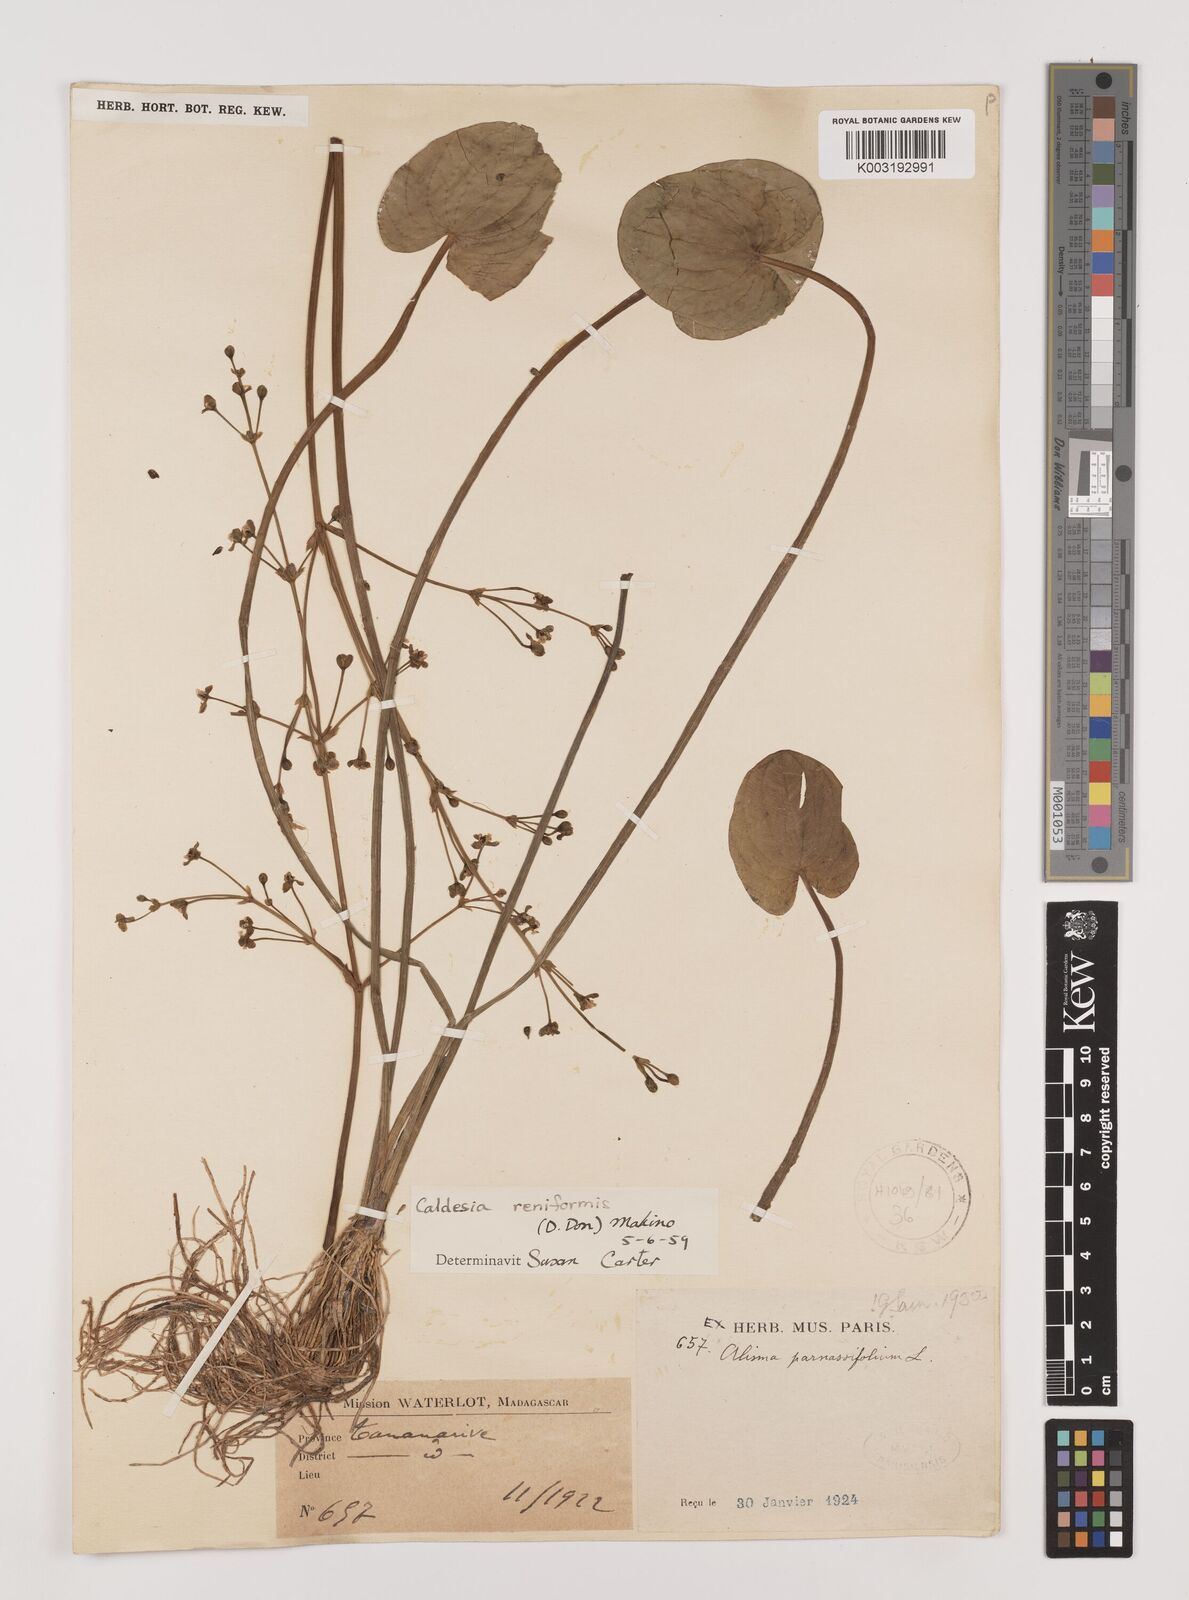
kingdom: Plantae
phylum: Tracheophyta
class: Liliopsida
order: Alismatales
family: Alismataceae
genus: Caldesia
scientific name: Caldesia parnassifolia
